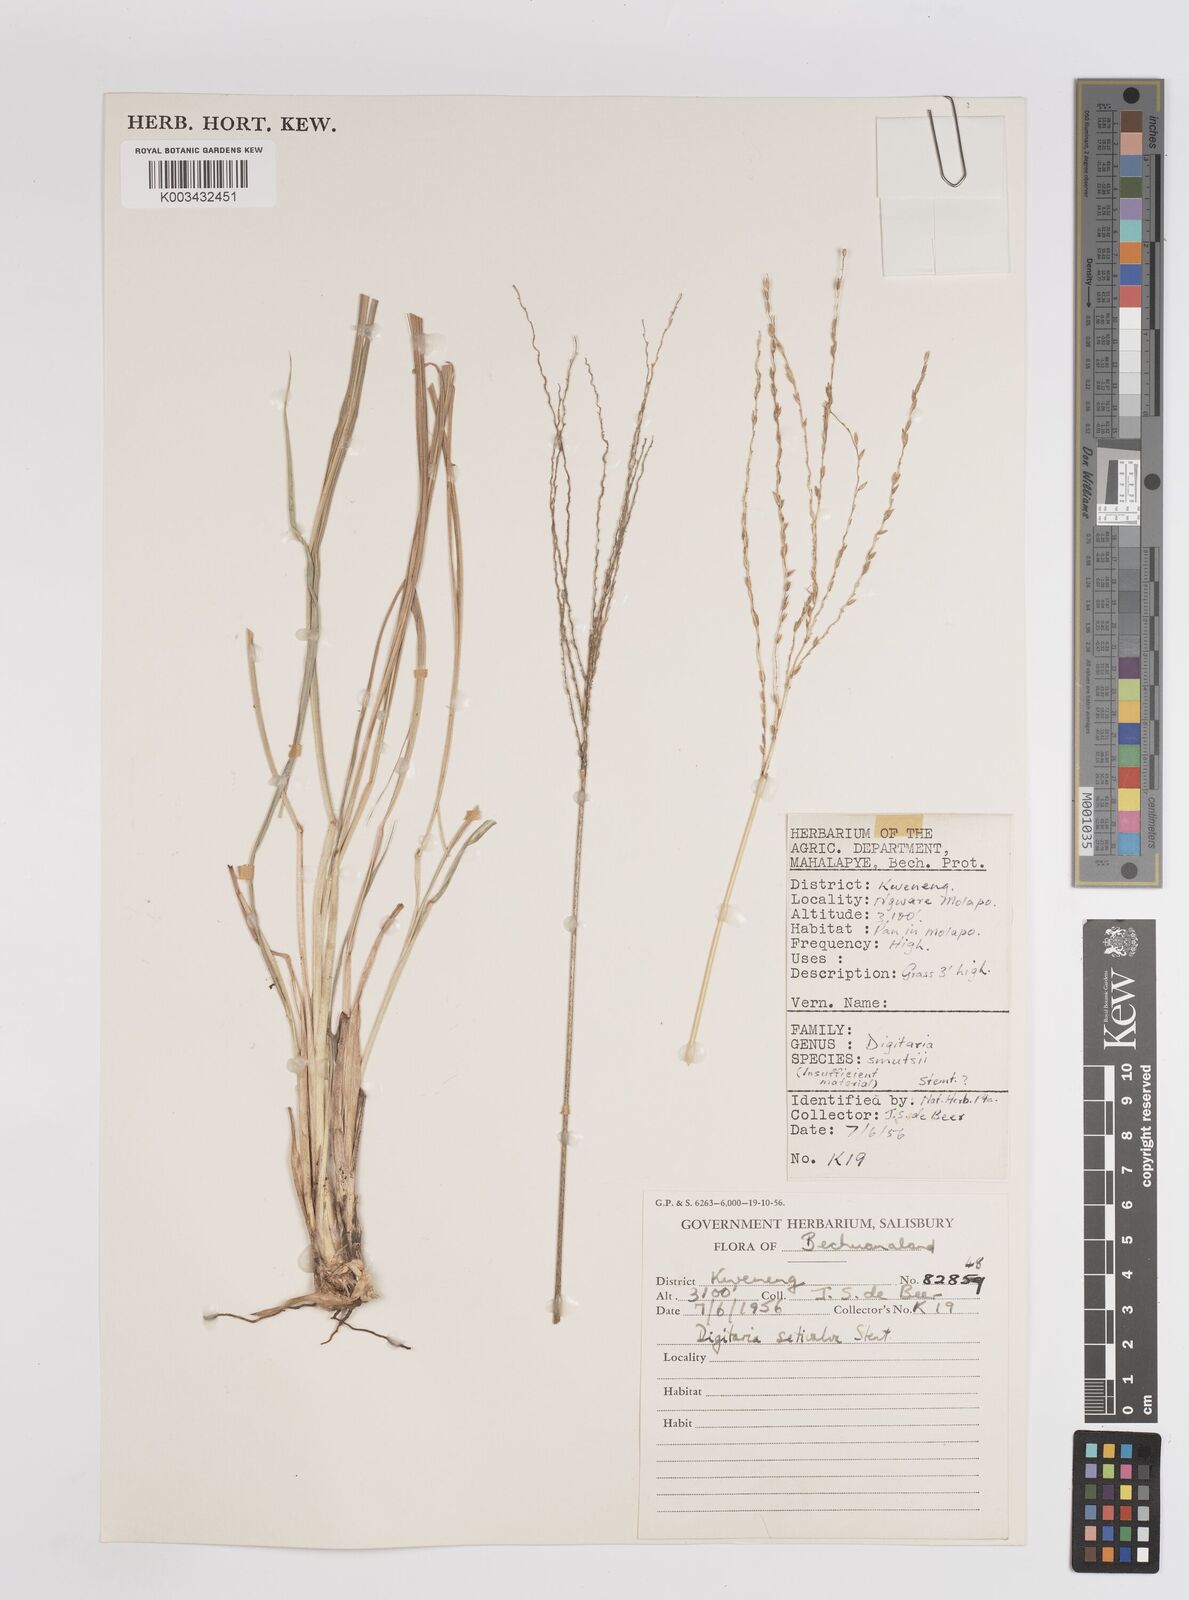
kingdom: Plantae
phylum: Tracheophyta
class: Liliopsida
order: Poales
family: Poaceae
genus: Digitaria
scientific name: Digitaria eriantha
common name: Digitgrass
